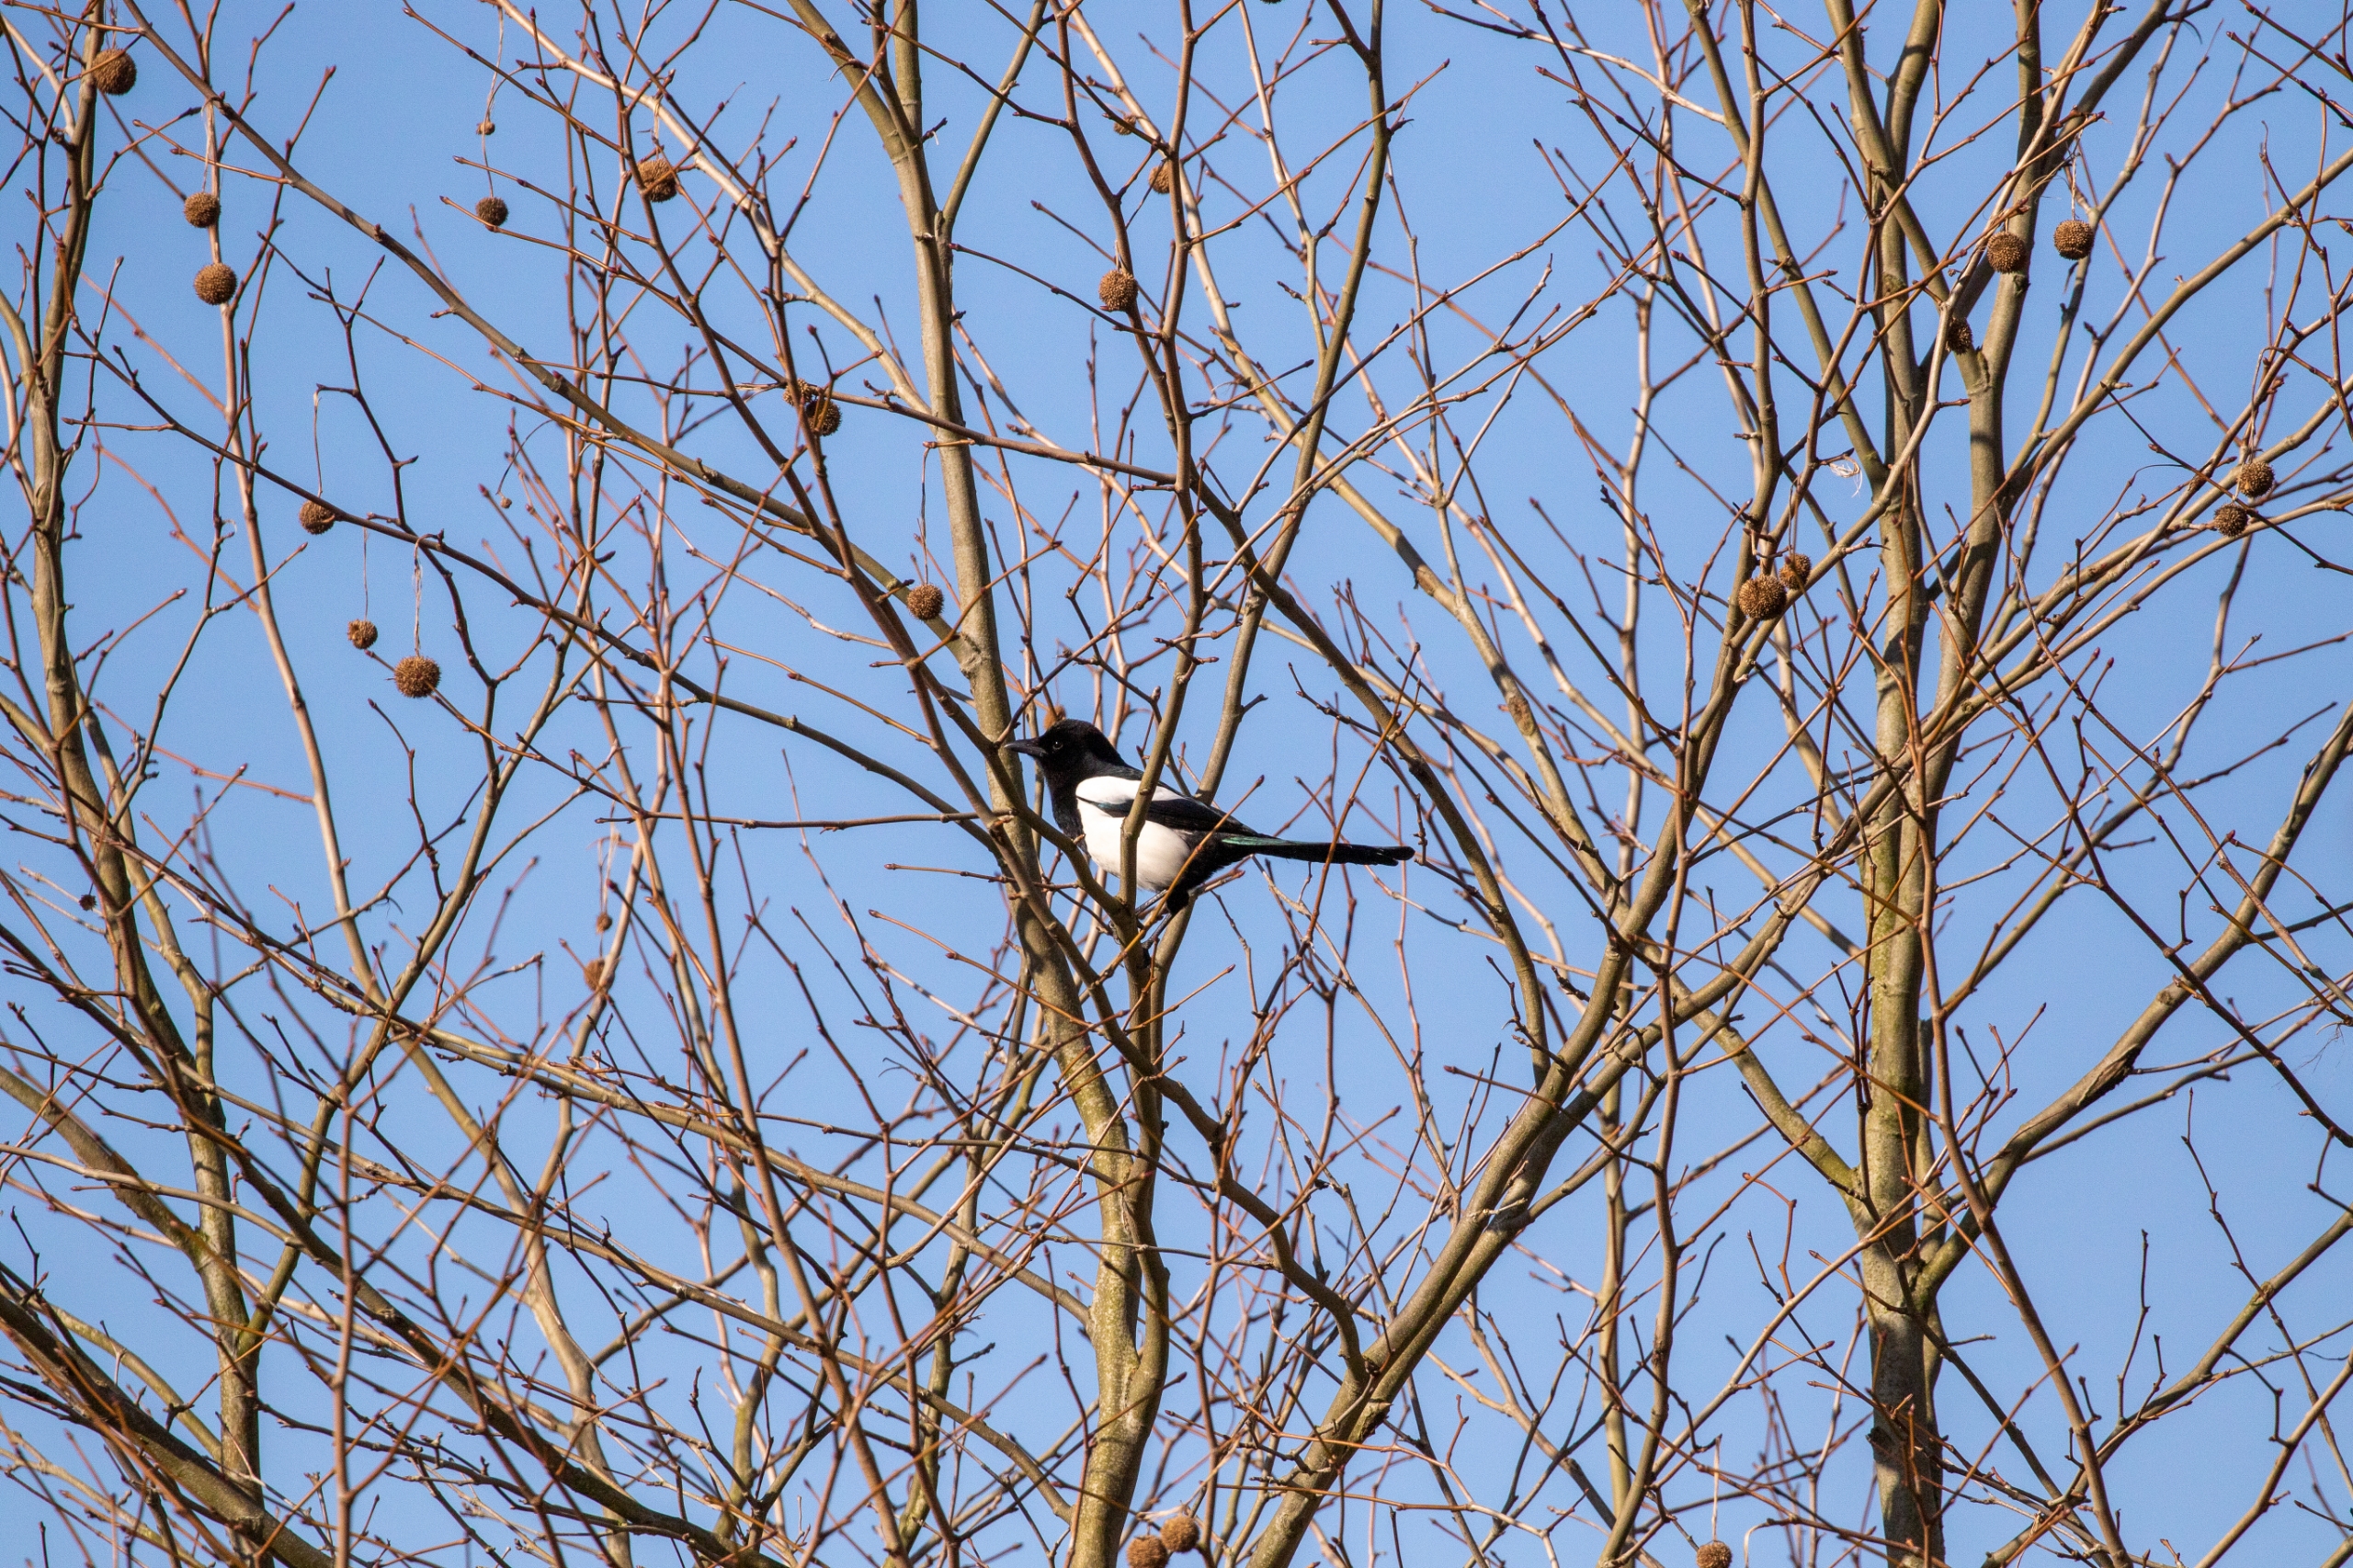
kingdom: Animalia
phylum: Chordata
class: Aves
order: Passeriformes
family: Corvidae
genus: Pica
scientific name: Pica pica
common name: Husskade
